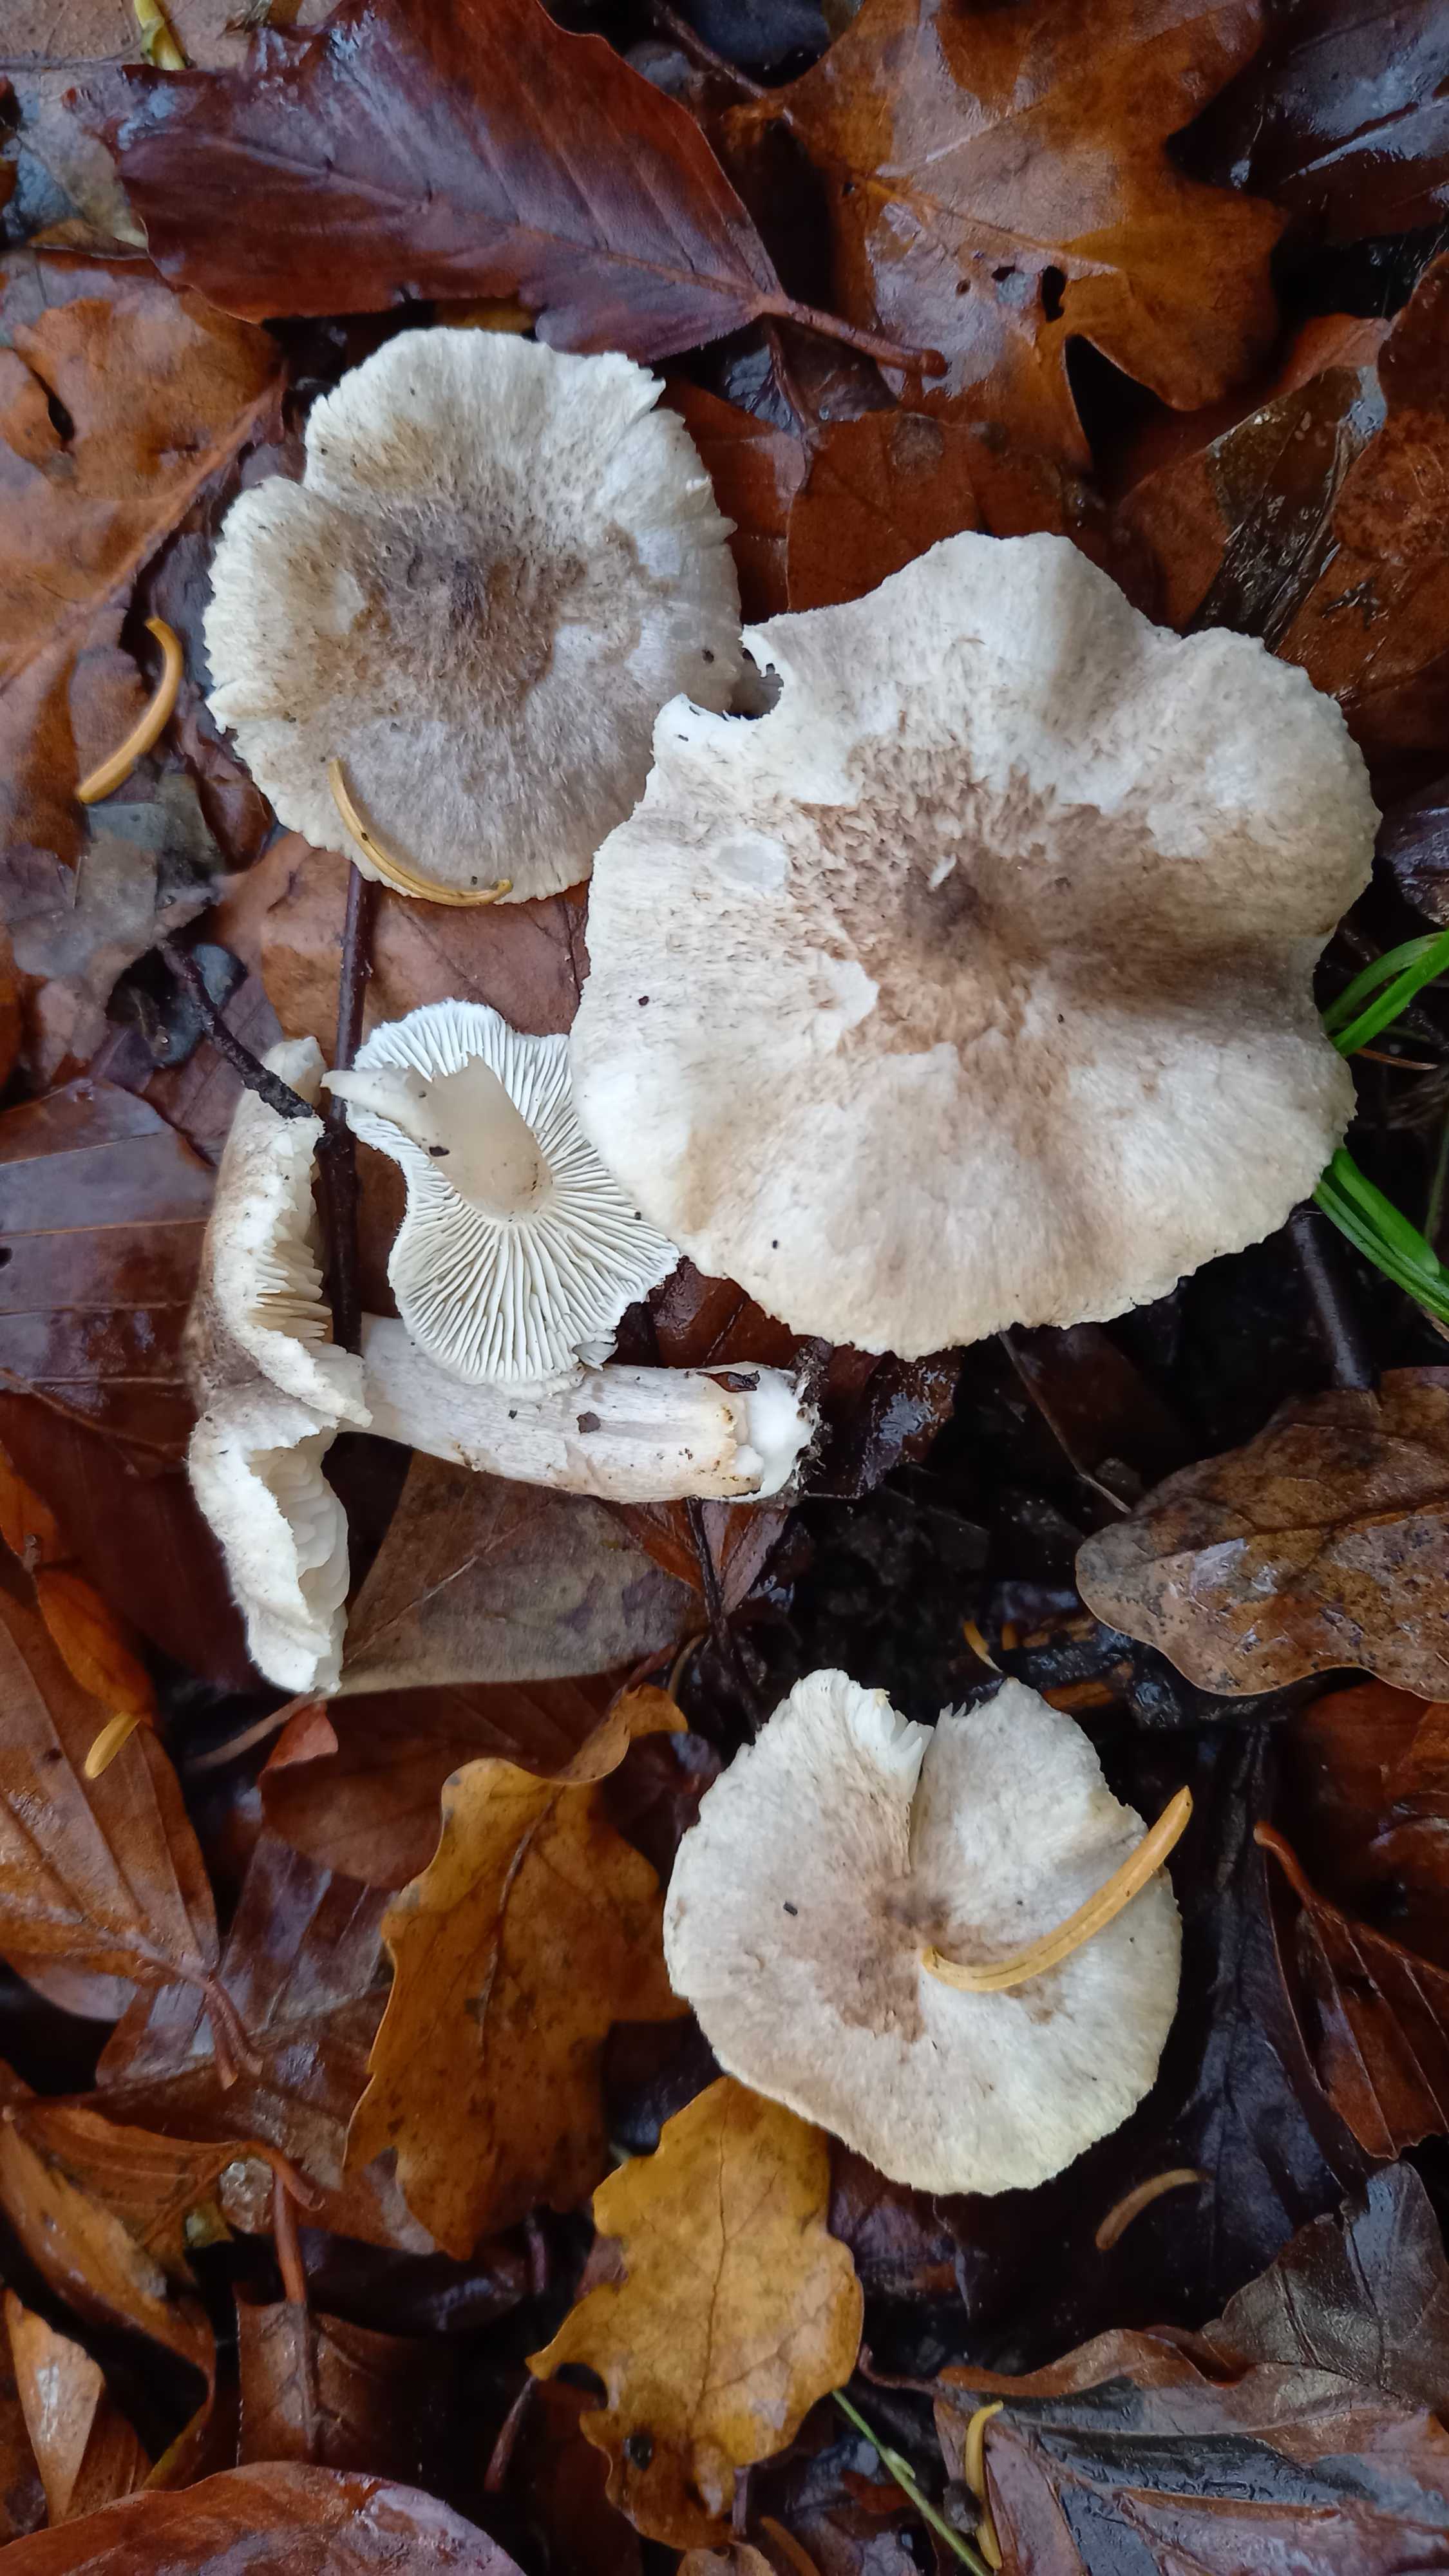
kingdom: Fungi
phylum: Basidiomycota
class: Agaricomycetes
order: Agaricales
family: Tricholomataceae
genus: Tricholoma
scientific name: Tricholoma scalpturatum
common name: gulplettet ridderhat
